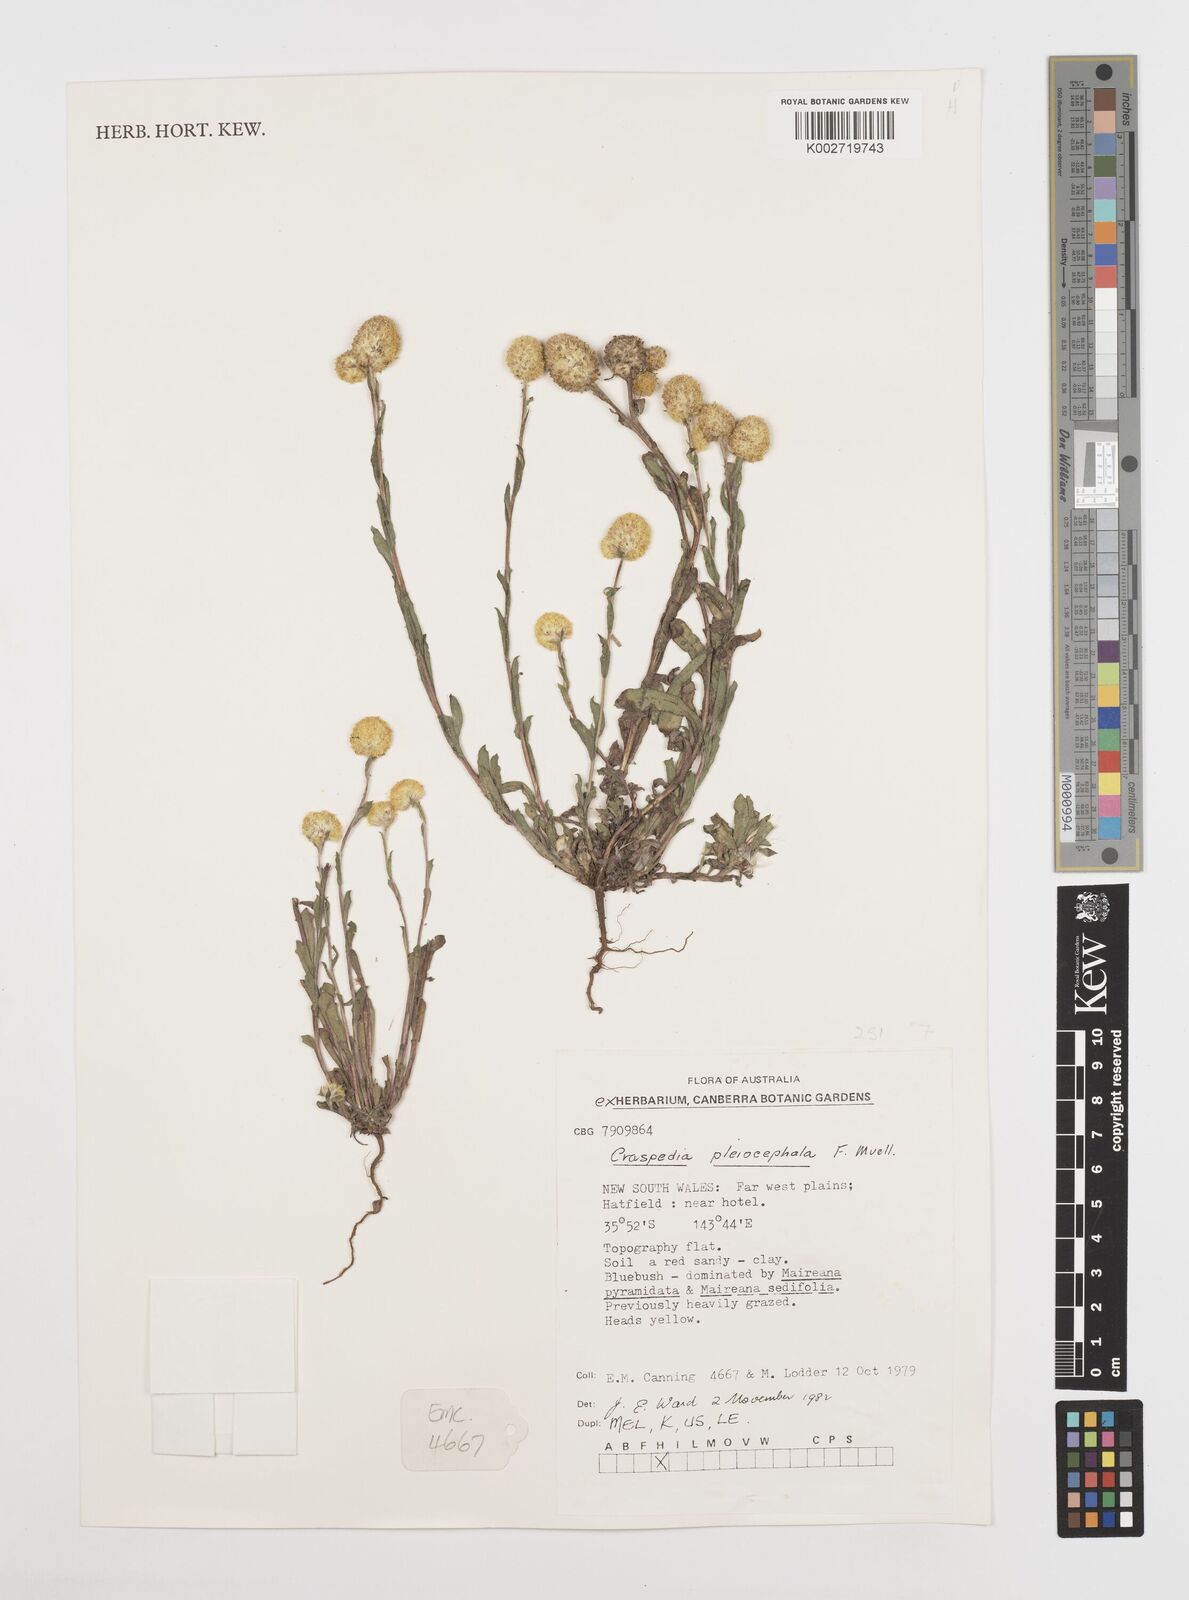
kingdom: Plantae
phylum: Tracheophyta
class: Magnoliopsida
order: Asterales
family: Asteraceae
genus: Pycnosorus
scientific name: Pycnosorus pleiocephalus
